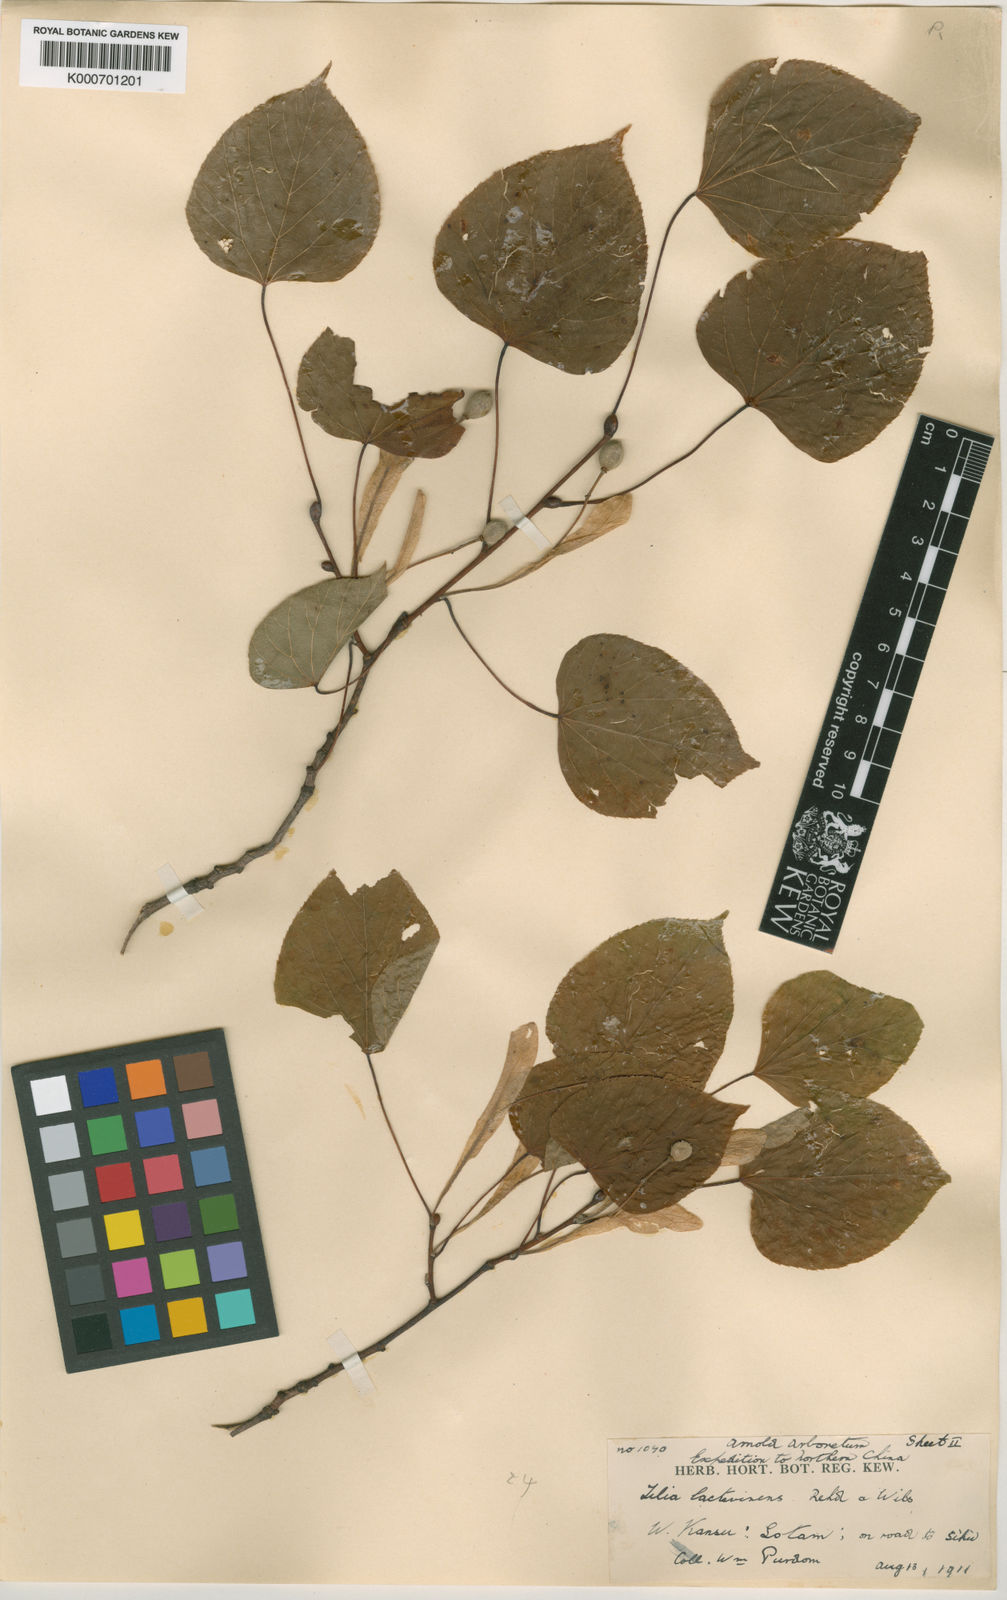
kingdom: Plantae
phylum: Tracheophyta
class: Magnoliopsida
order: Malvales
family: Malvaceae
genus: Tilia
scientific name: Tilia chinensis
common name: Chinese linden
